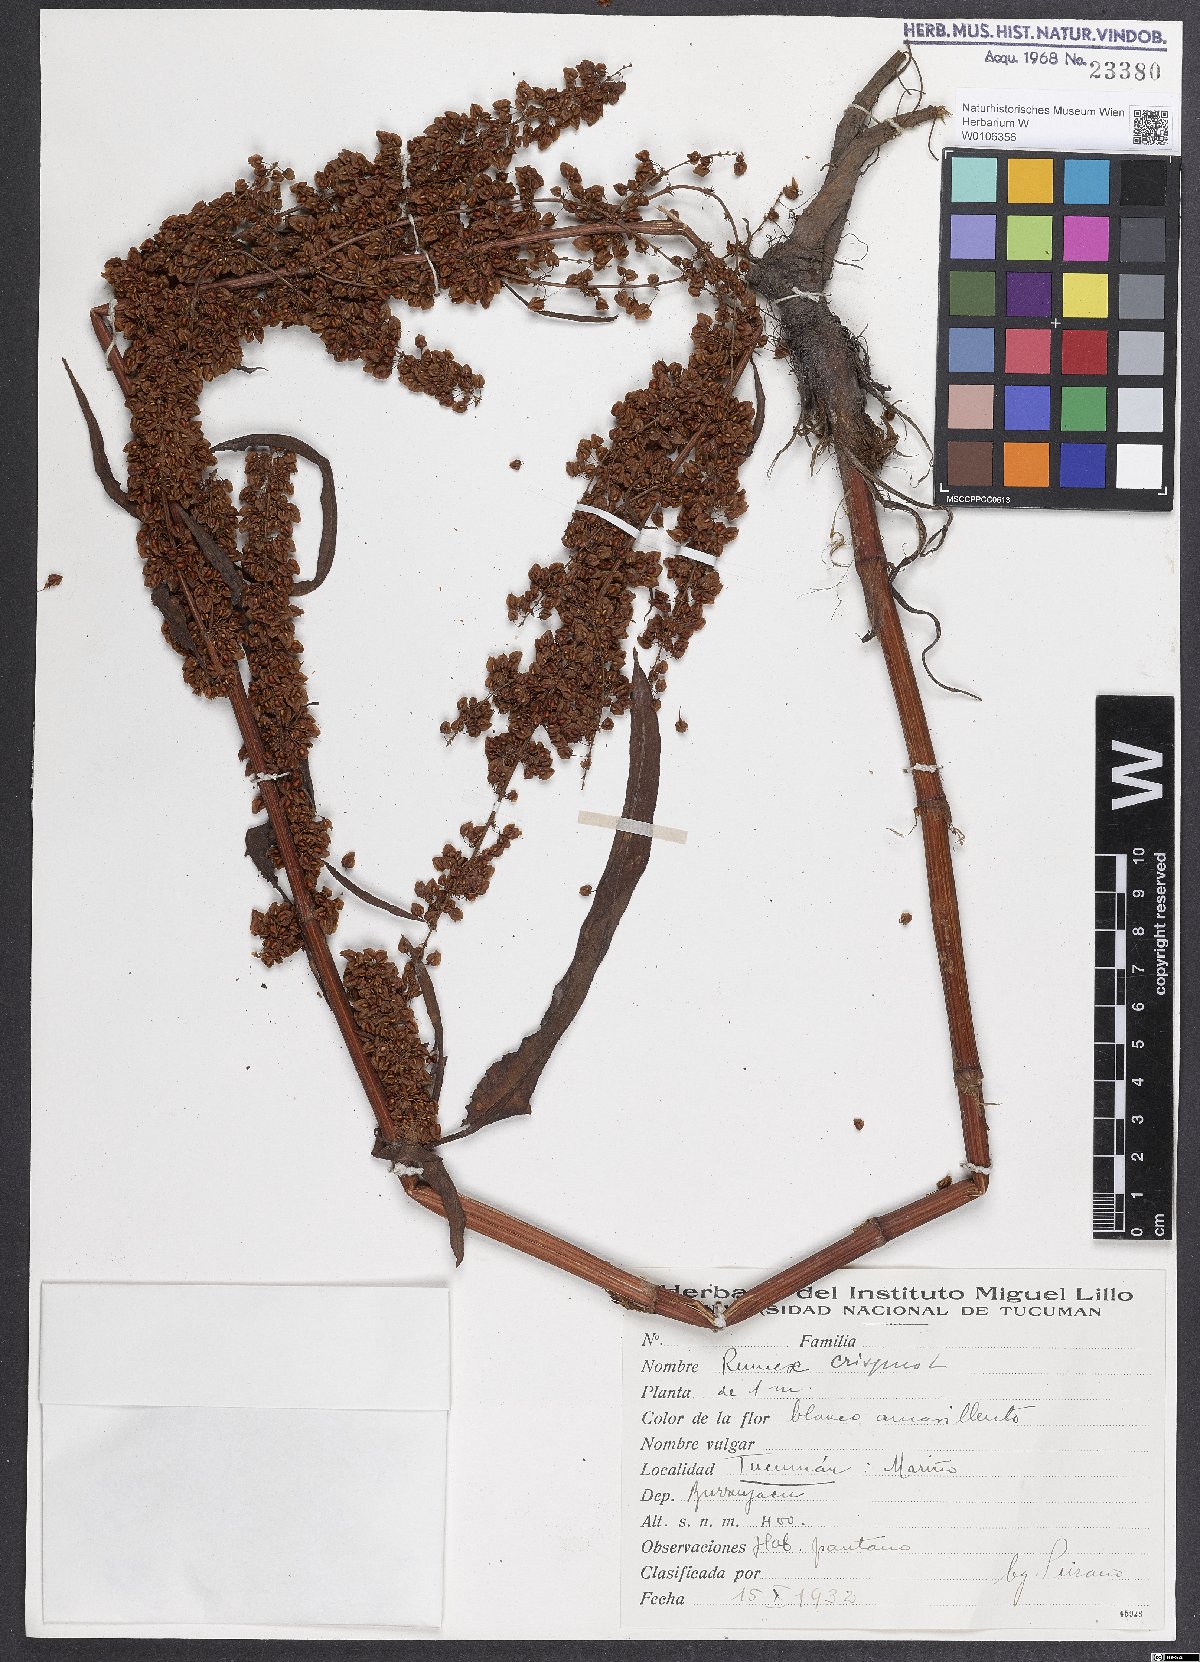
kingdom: Plantae
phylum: Tracheophyta
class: Magnoliopsida
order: Caryophyllales
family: Polygonaceae
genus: Rumex
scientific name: Rumex crispus
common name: Curled dock
